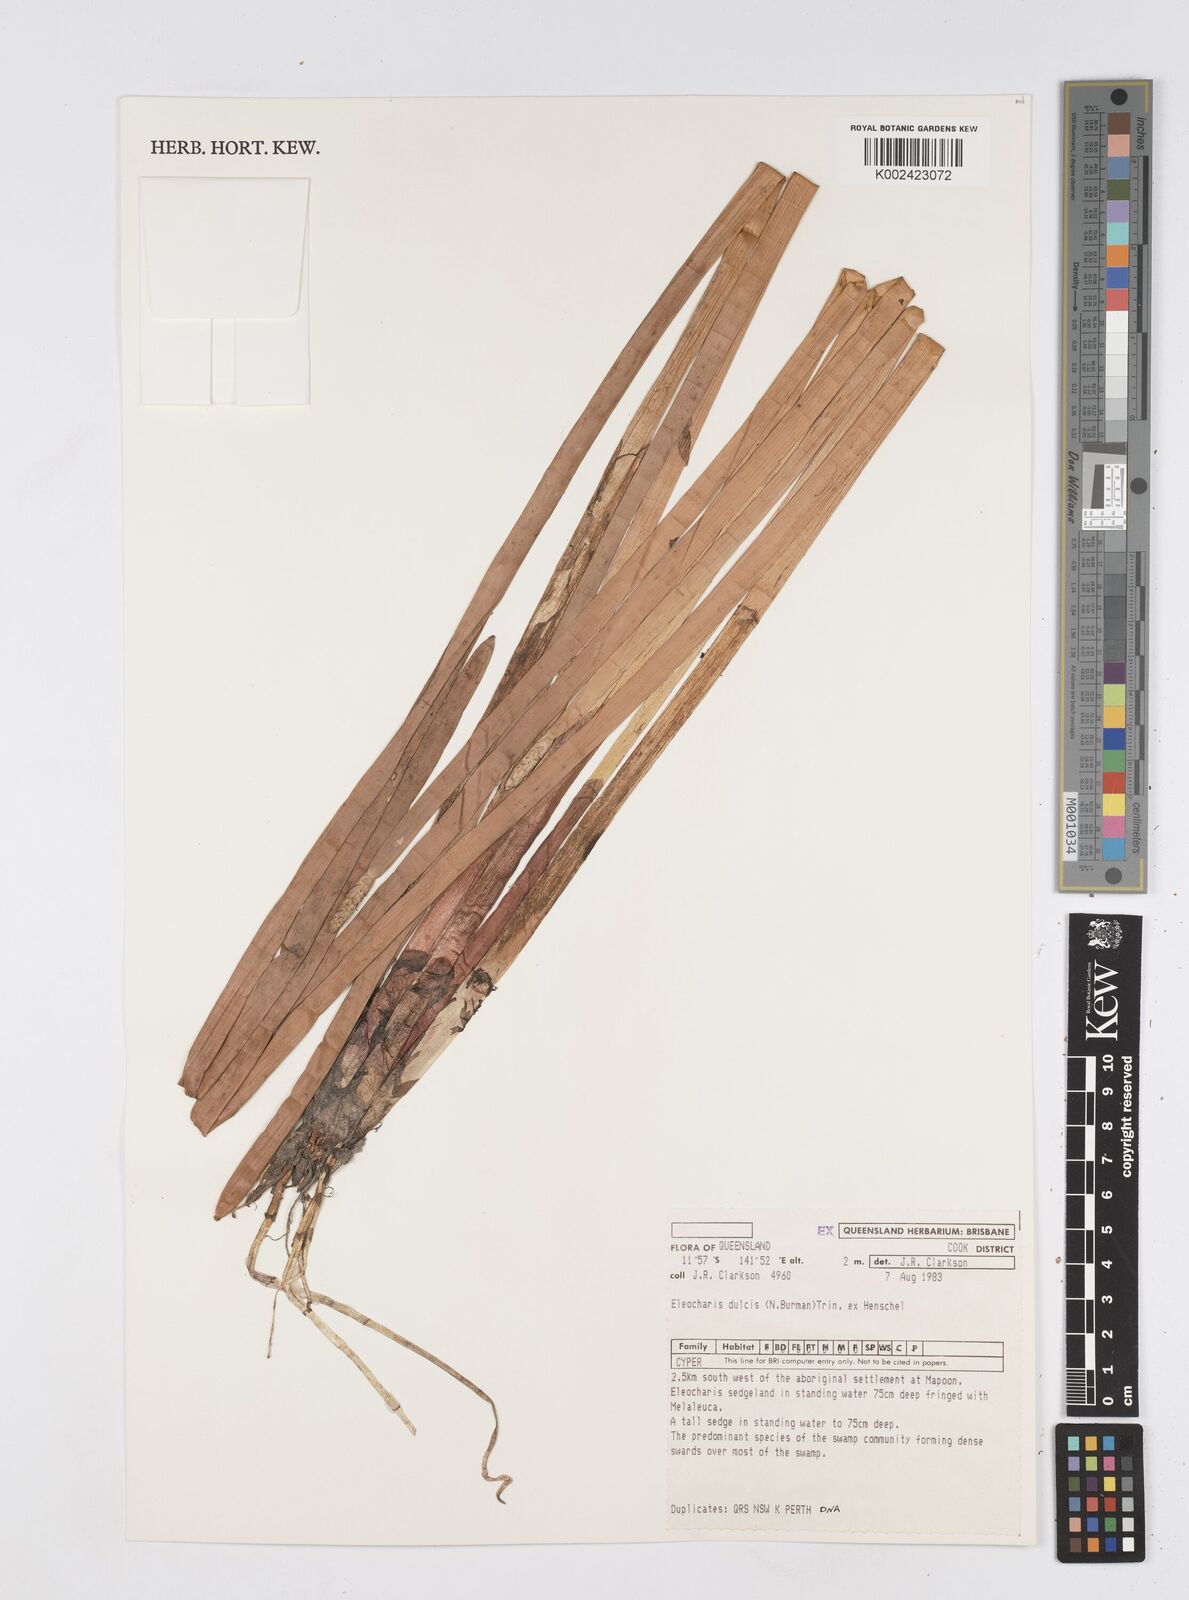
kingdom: Plantae
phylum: Tracheophyta
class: Liliopsida
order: Poales
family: Cyperaceae
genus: Eleocharis
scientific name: Eleocharis dulcis
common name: Chinese water chestnut
